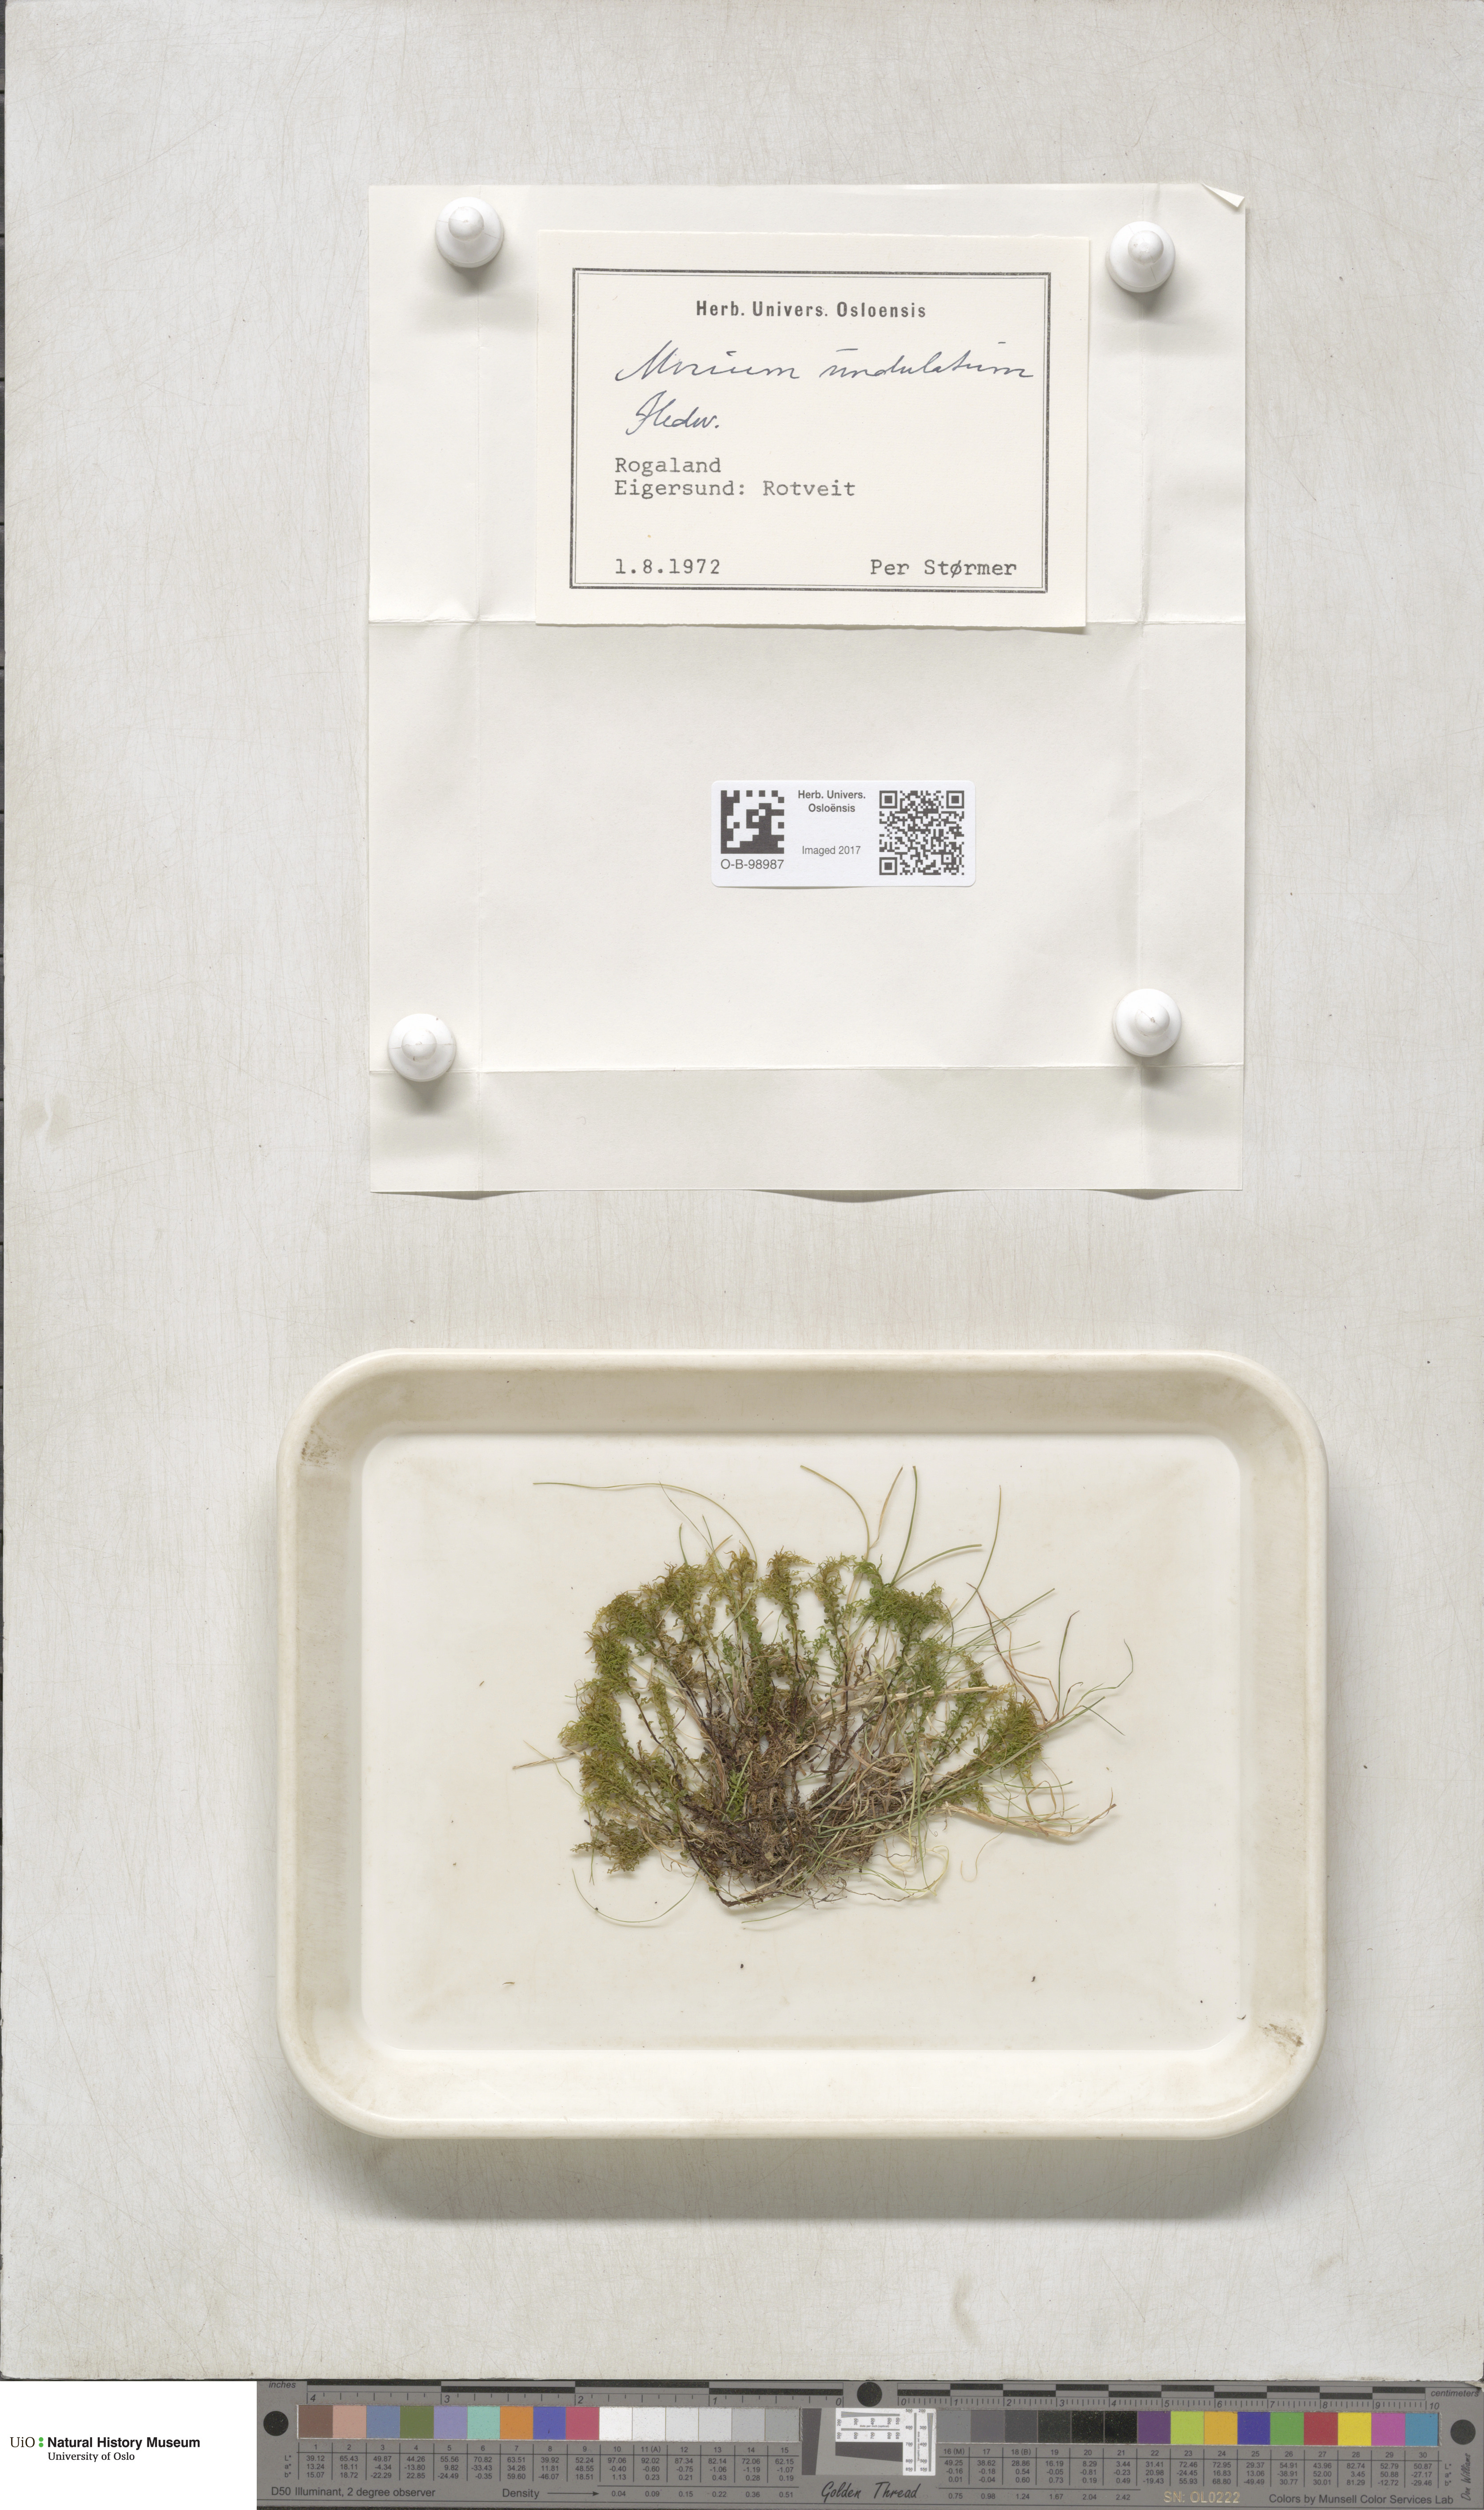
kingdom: Plantae
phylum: Bryophyta
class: Bryopsida
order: Bryales
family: Mniaceae
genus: Plagiomnium
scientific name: Plagiomnium undulatum
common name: Hart's-tongue thyme-moss
